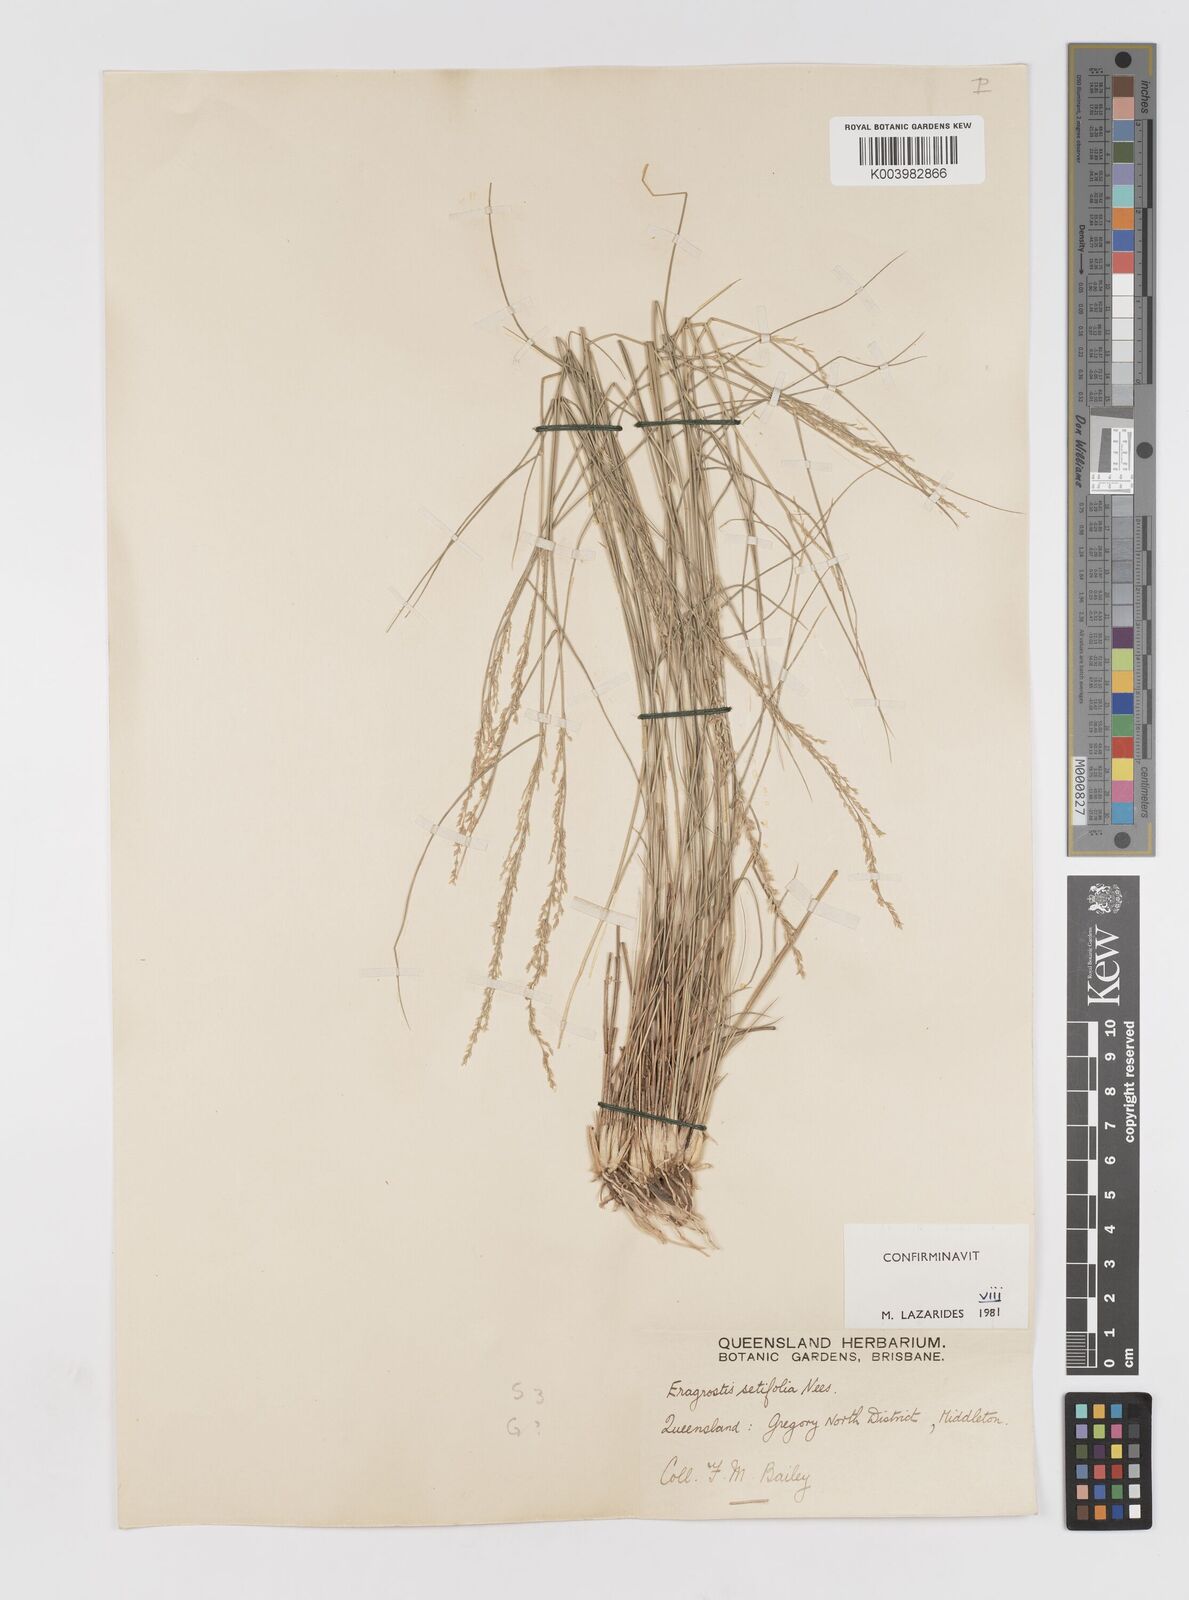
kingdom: Plantae
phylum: Tracheophyta
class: Liliopsida
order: Poales
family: Poaceae
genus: Eragrostis
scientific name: Eragrostis setifolia
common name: Bristleleaf lovegrass
